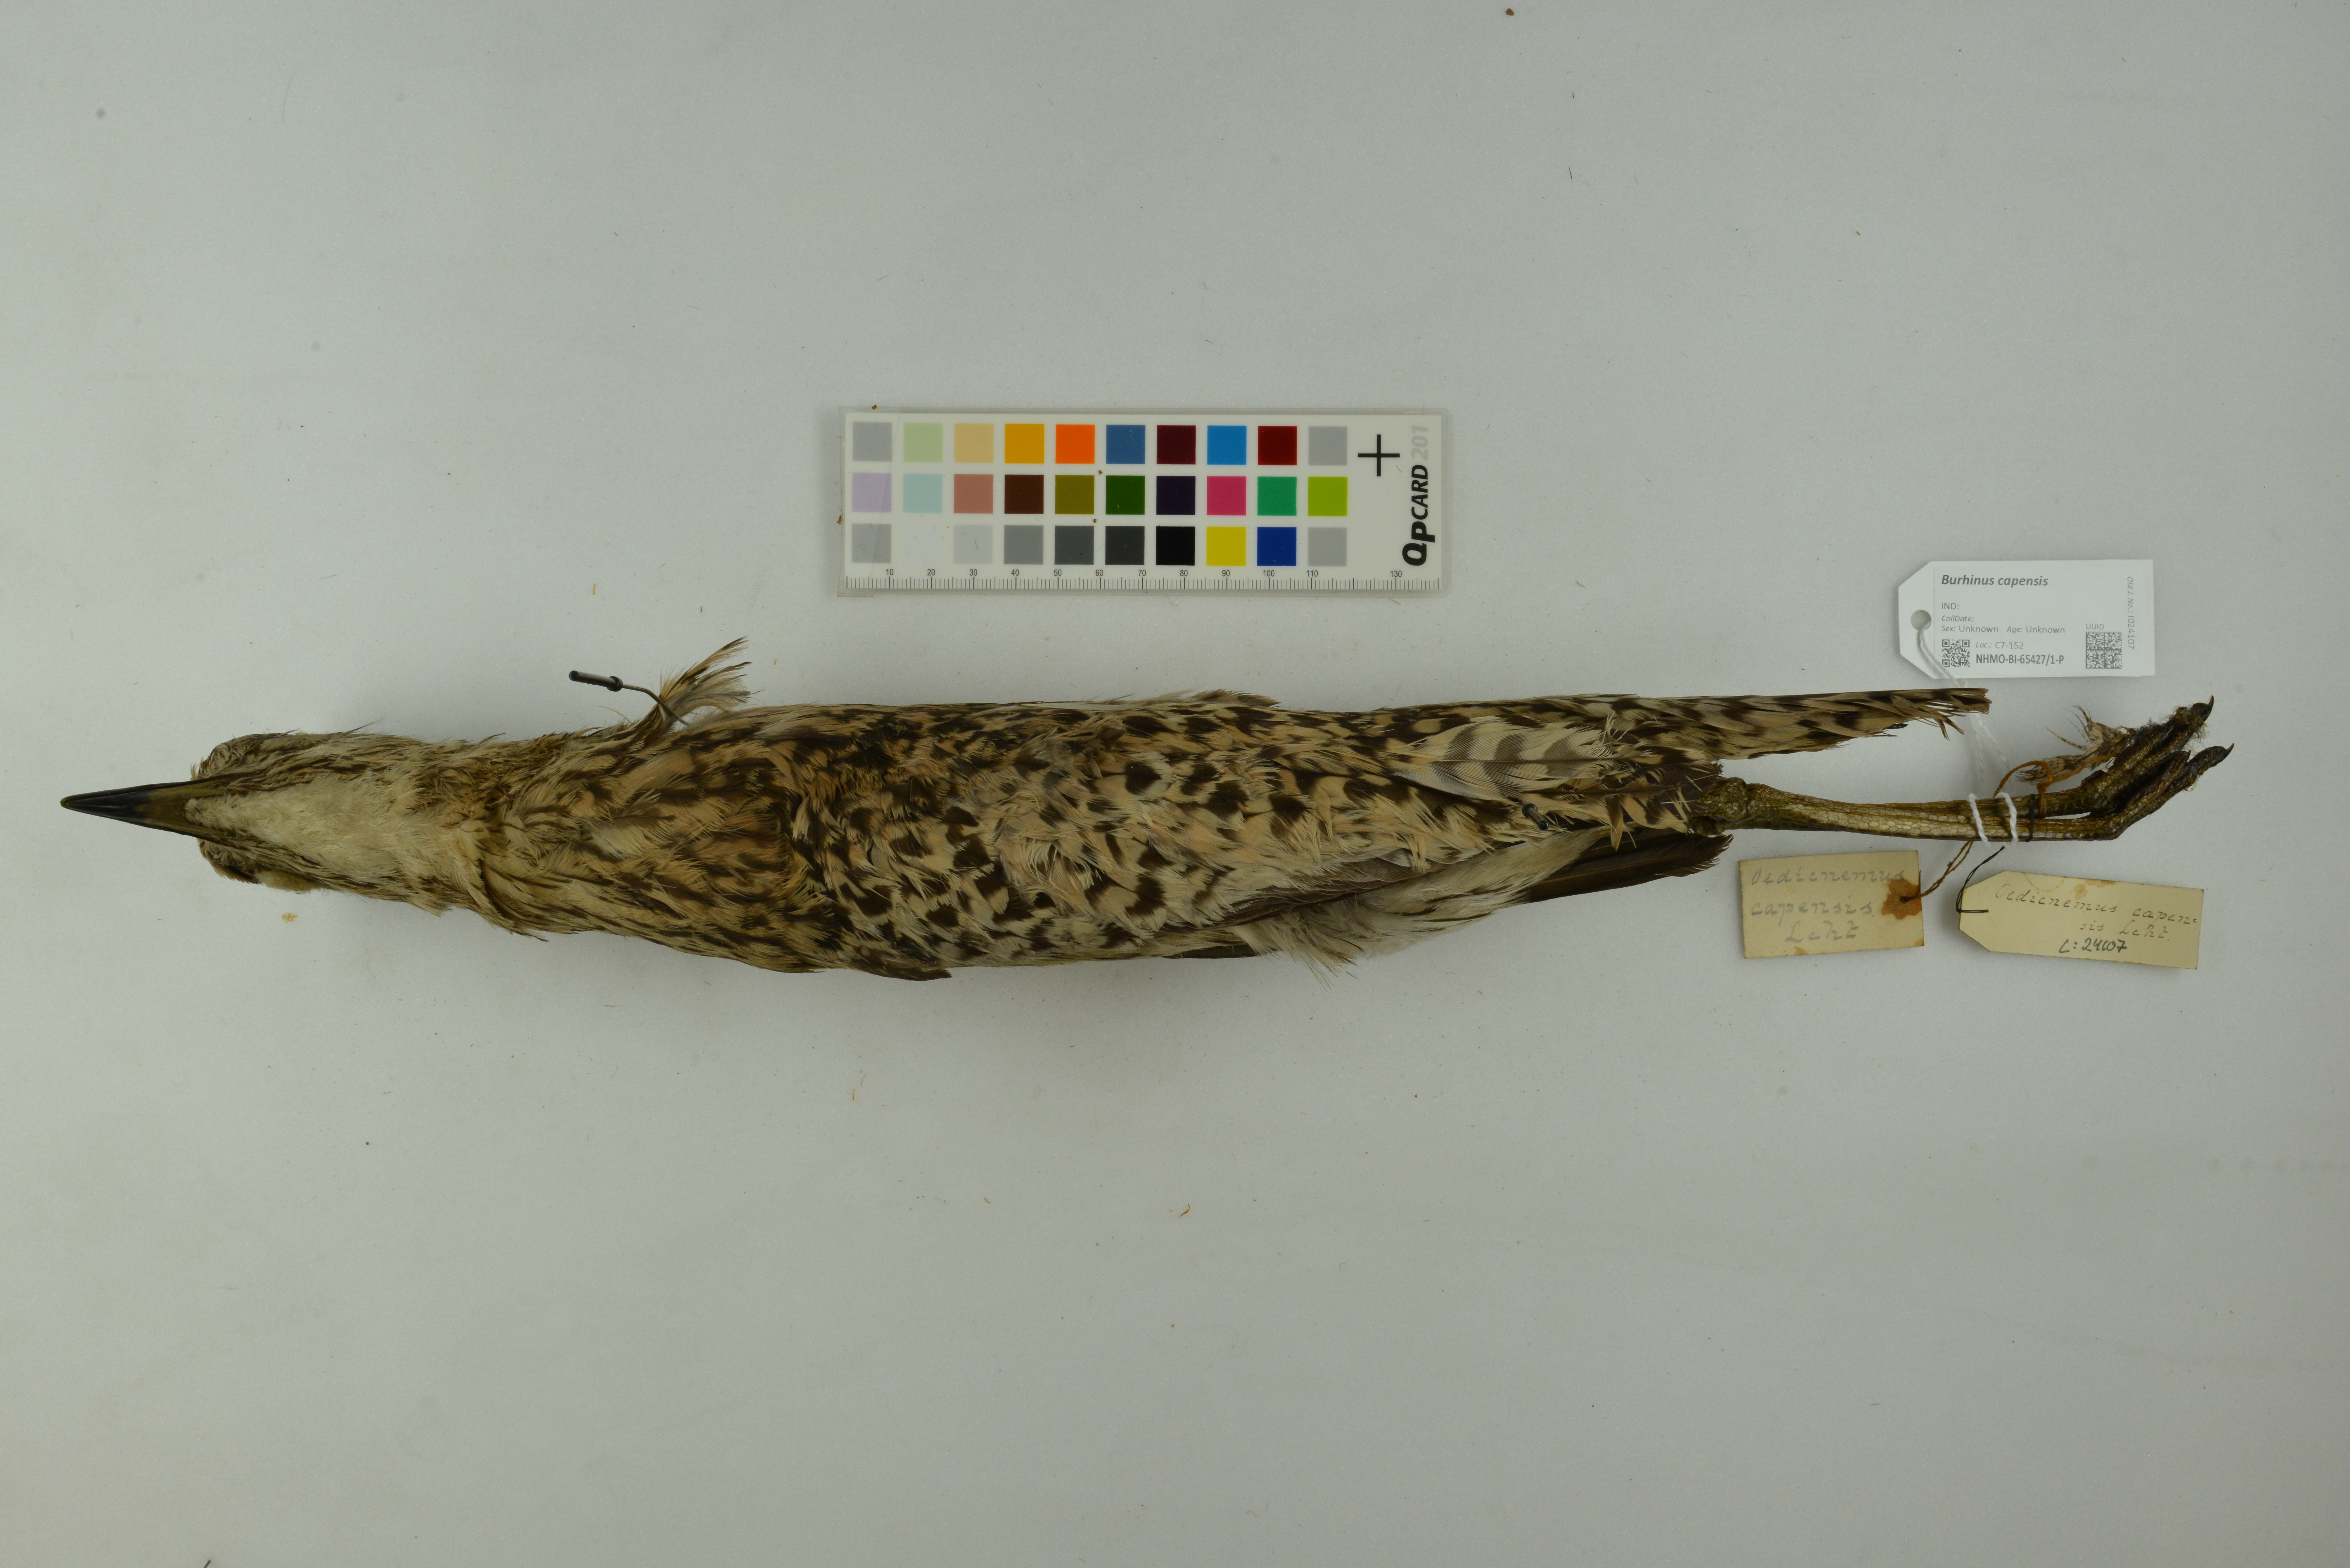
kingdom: Animalia
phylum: Chordata
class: Aves
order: Charadriiformes
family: Burhinidae
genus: Burhinus
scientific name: Burhinus capensis
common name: Spotted thick-knee
